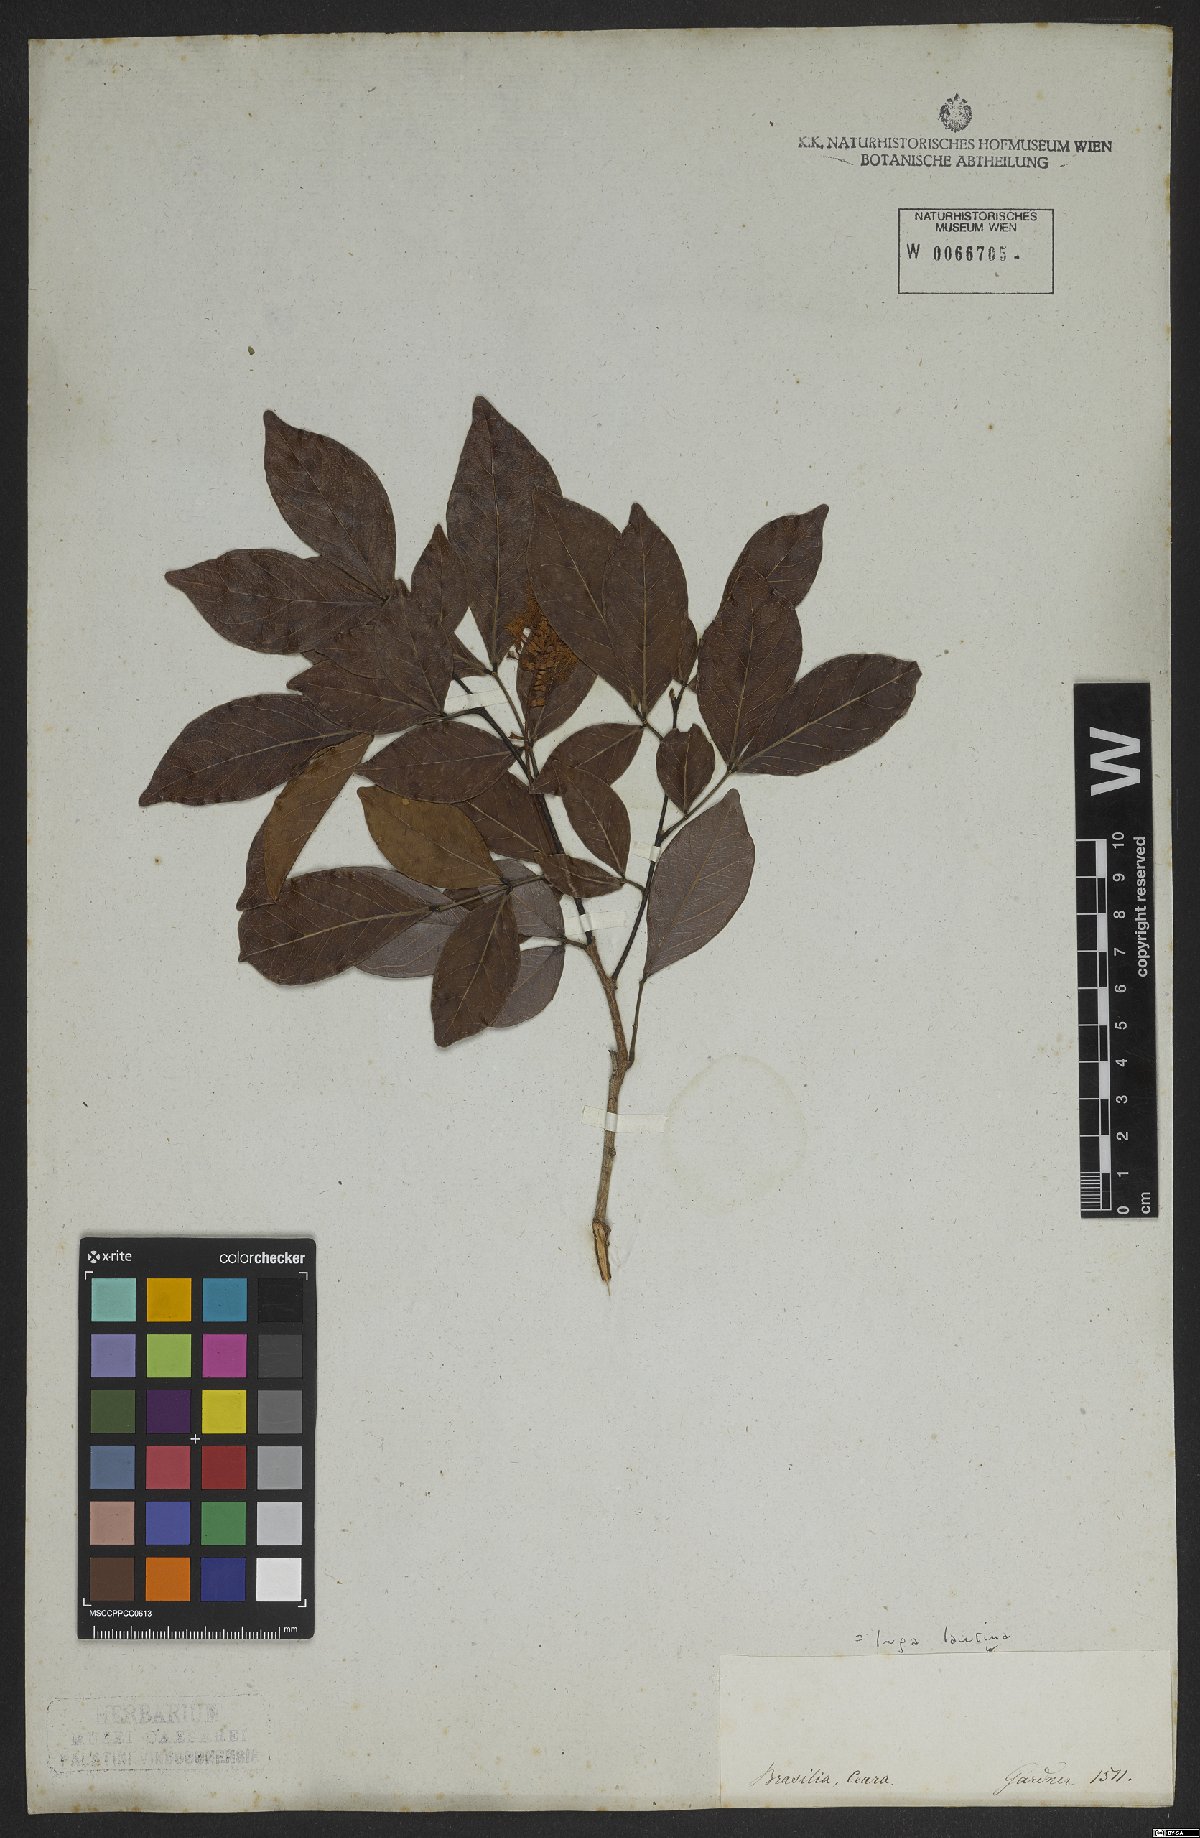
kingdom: Plantae
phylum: Tracheophyta
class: Magnoliopsida
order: Fabales
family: Fabaceae
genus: Inga
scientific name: Inga laurina
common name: Red wood
